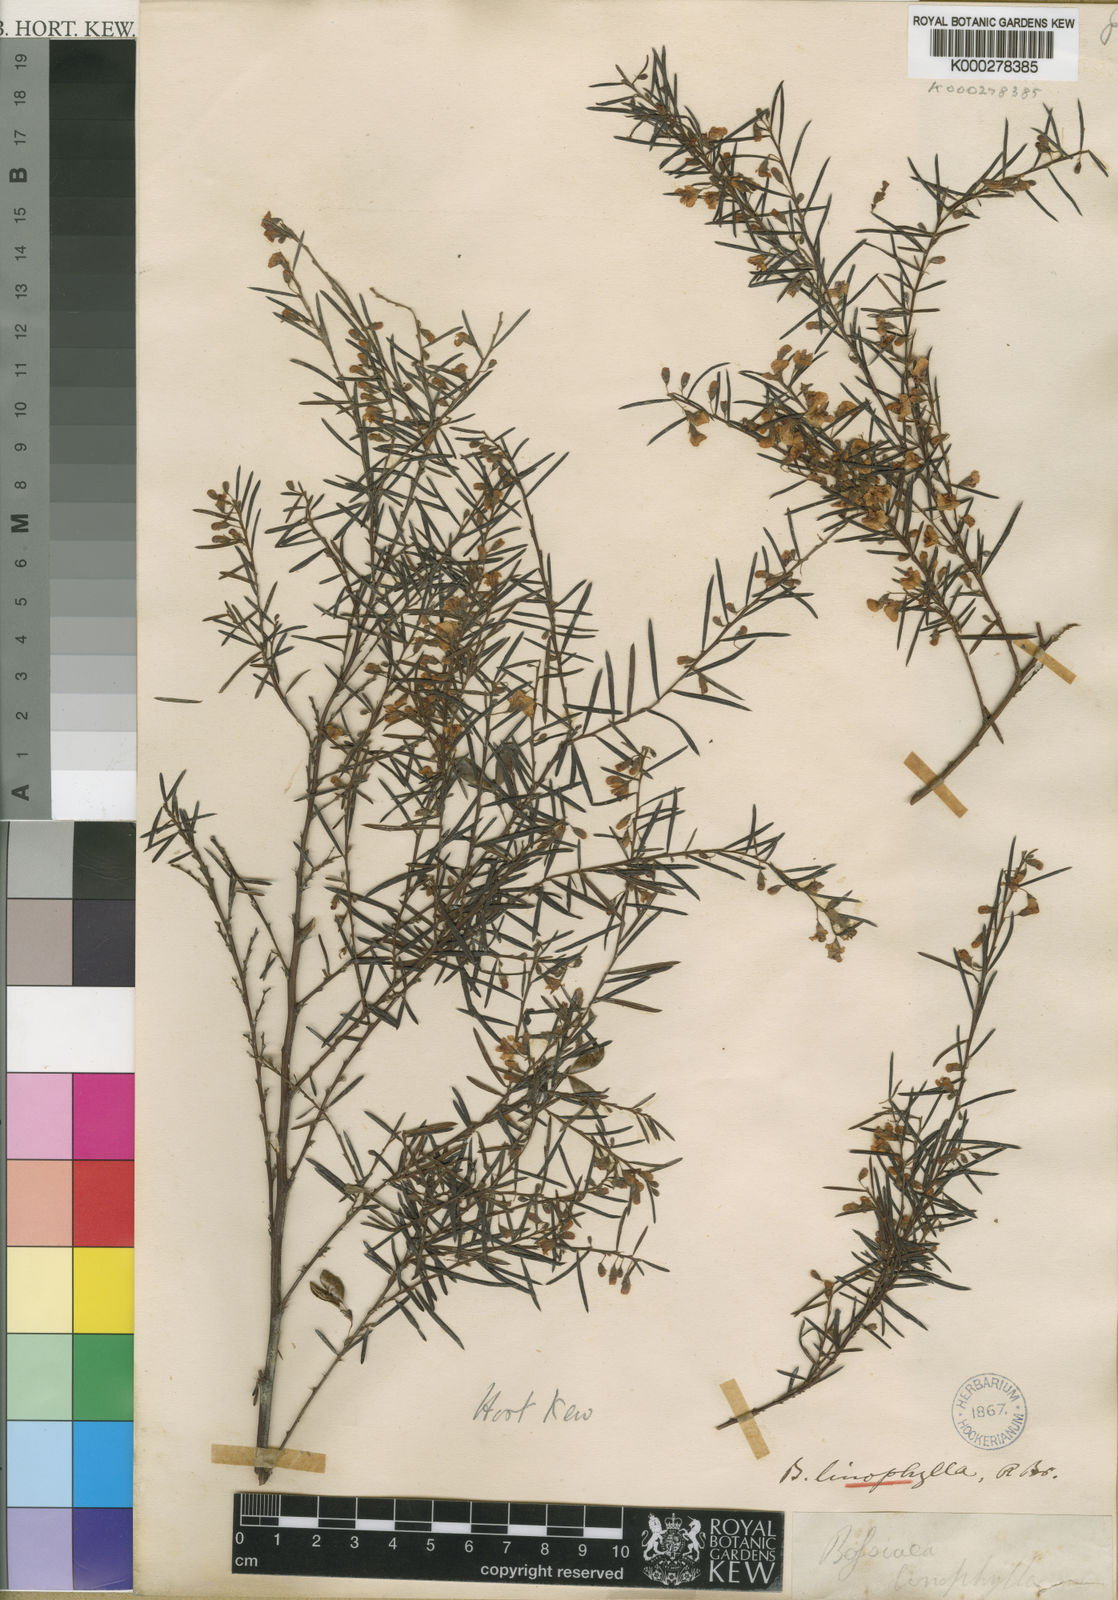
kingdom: Plantae
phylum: Tracheophyta
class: Magnoliopsida
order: Fabales
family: Fabaceae
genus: Bossiaea
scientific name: Bossiaea linophylla
